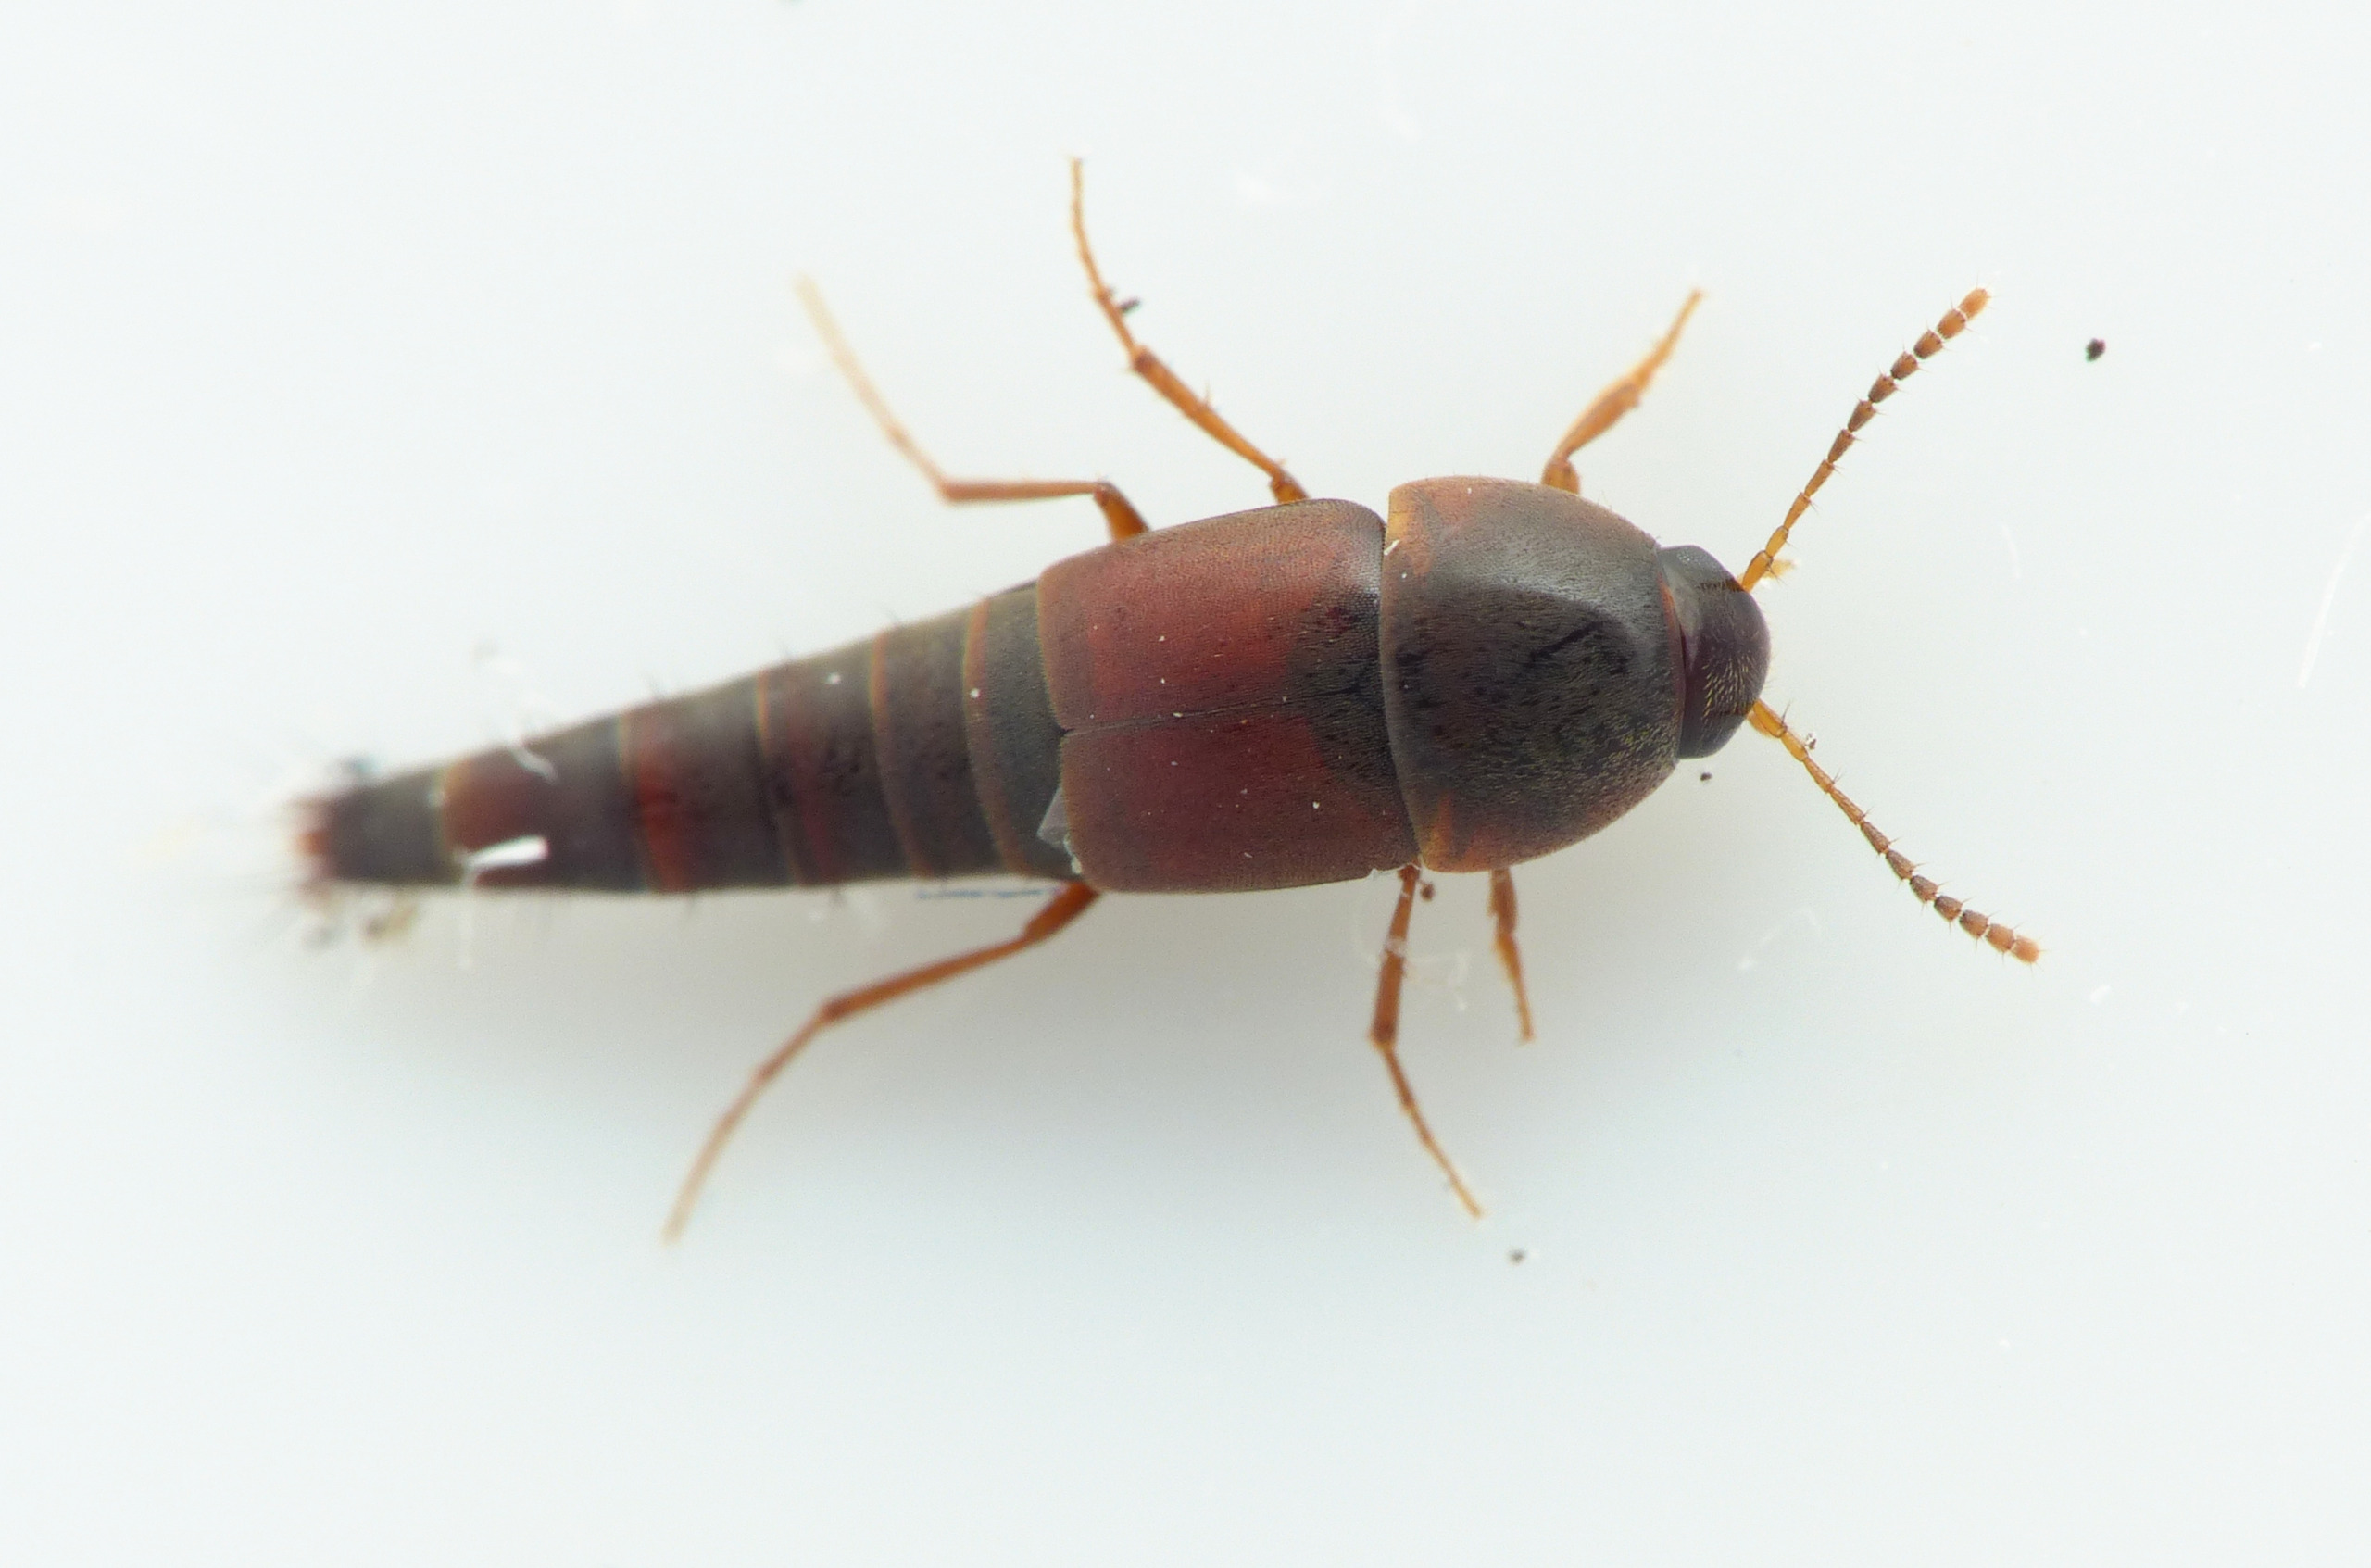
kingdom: Animalia
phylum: Arthropoda
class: Insecta
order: Coleoptera
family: Staphylinidae
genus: Sepedophilus
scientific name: Sepedophilus marshami
